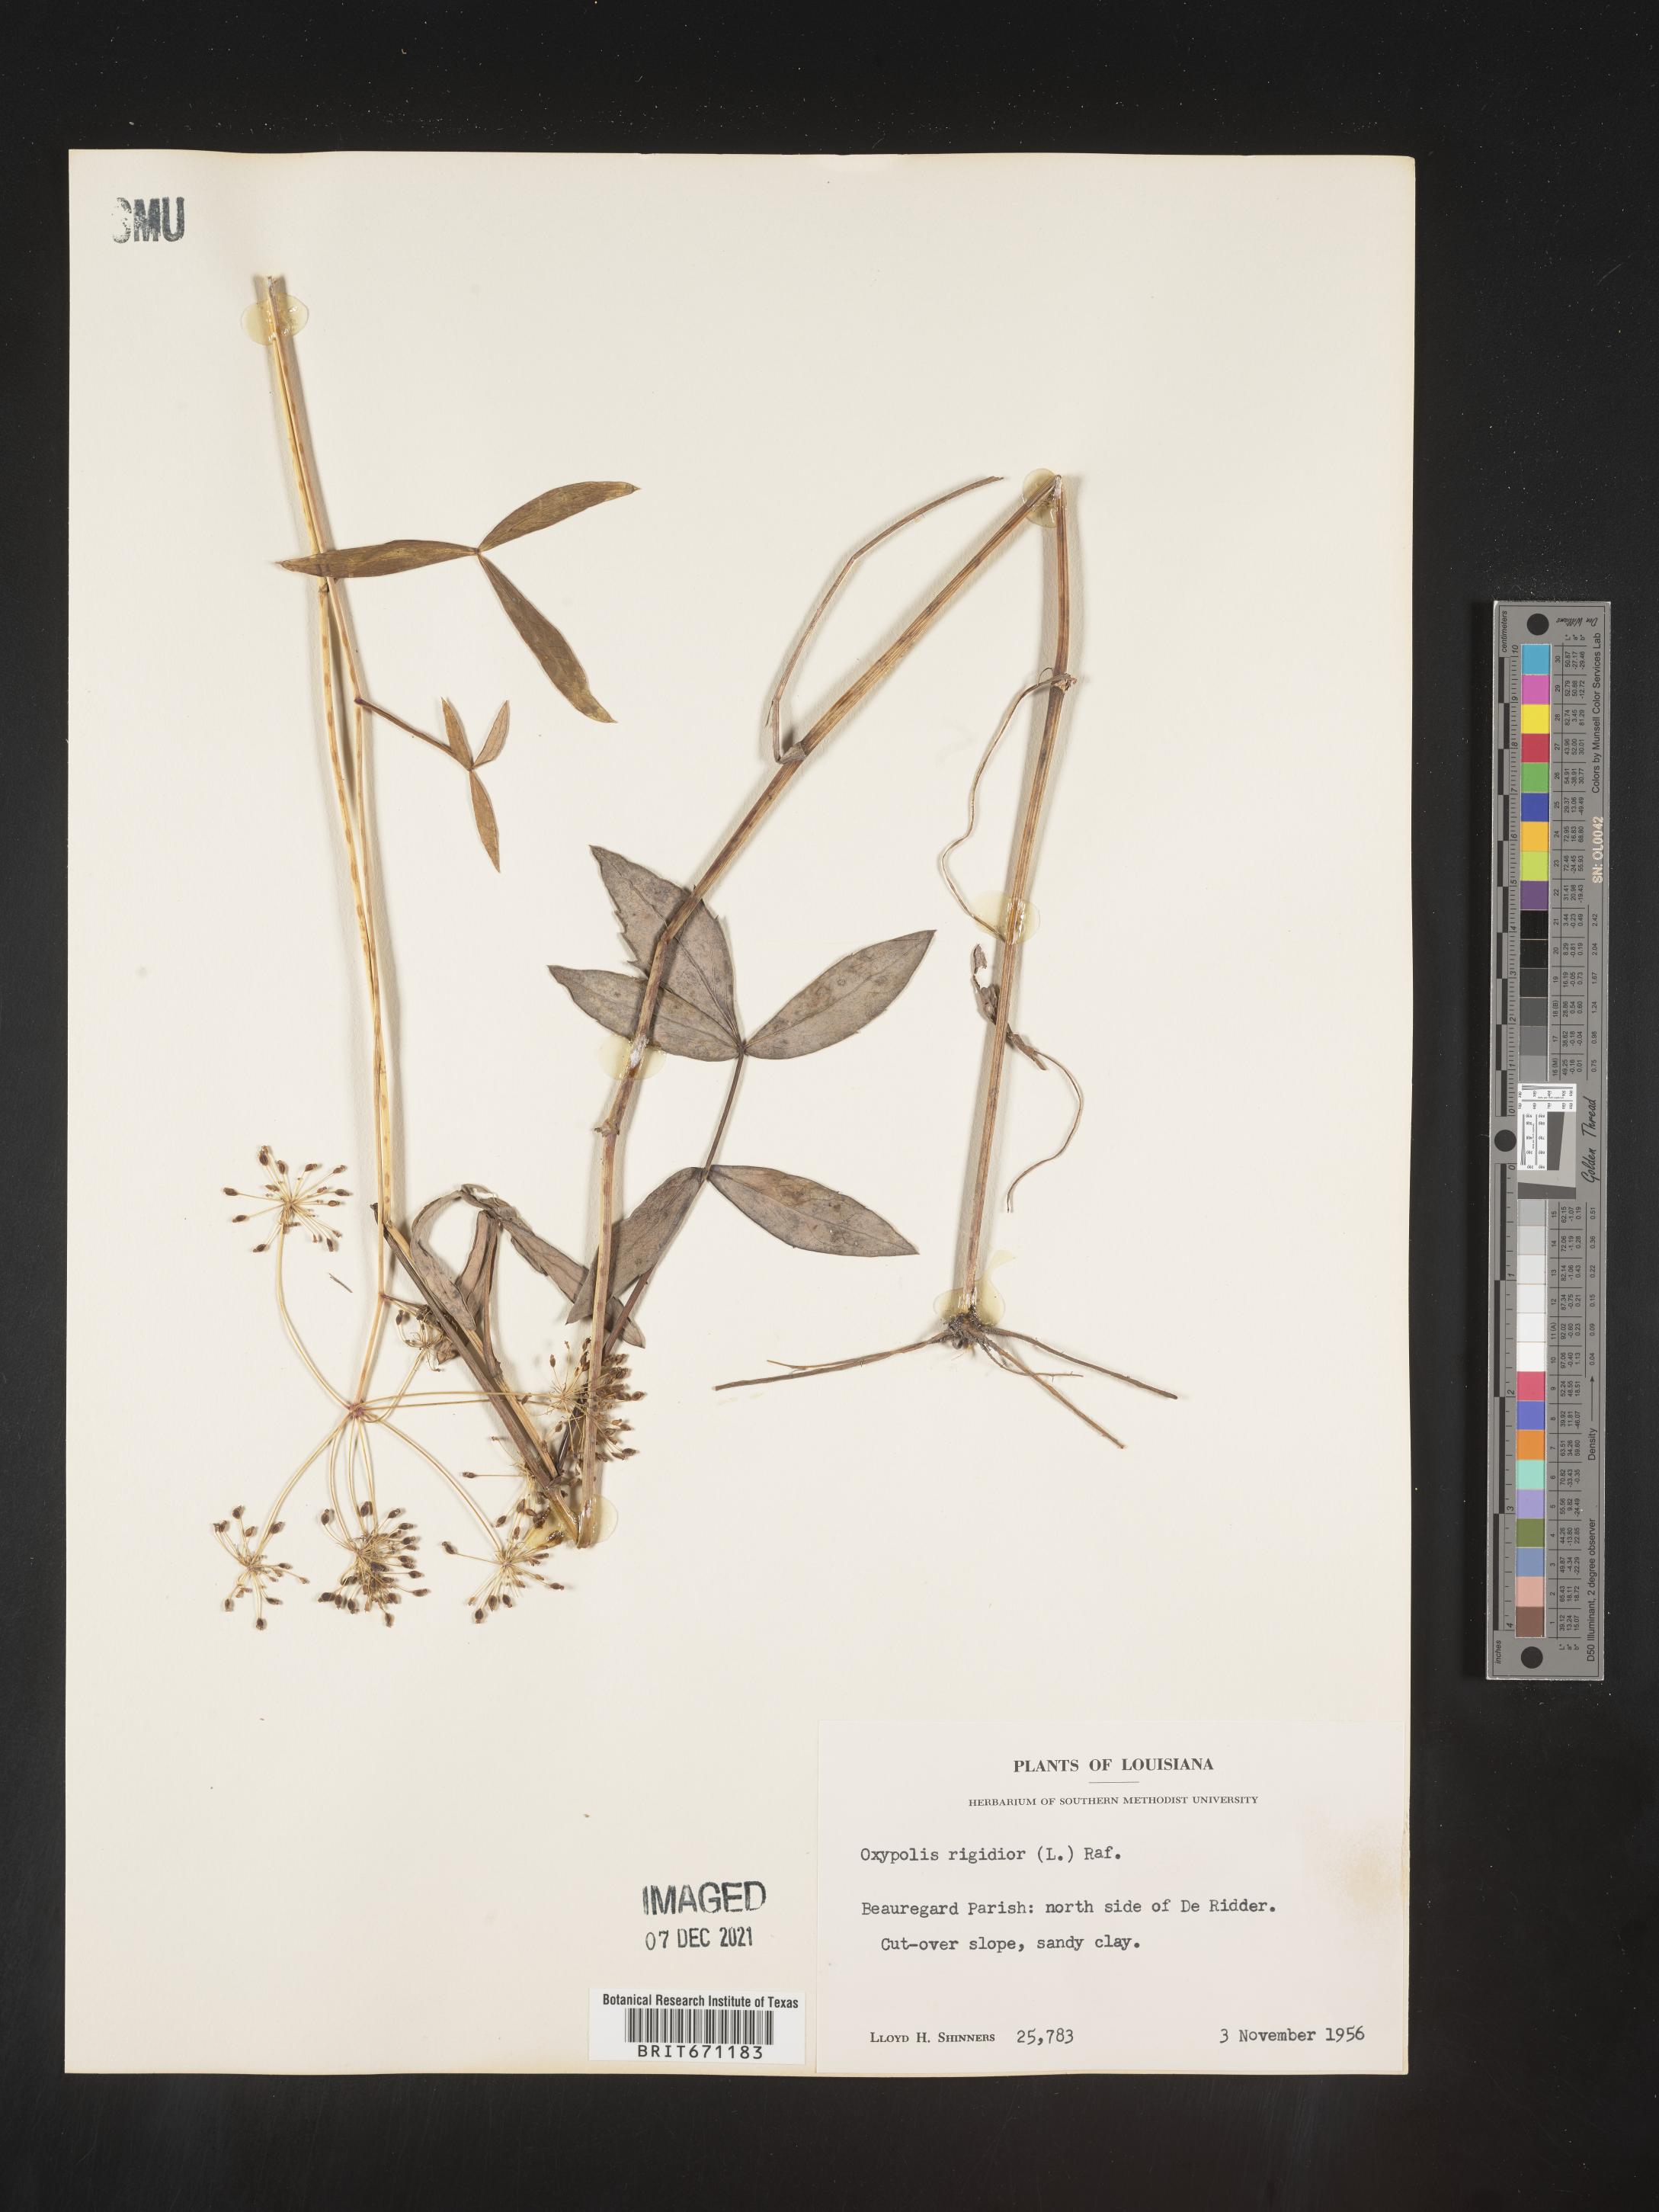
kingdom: Plantae
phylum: Tracheophyta
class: Magnoliopsida
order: Apiales
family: Apiaceae
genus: Oxypolis
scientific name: Oxypolis rigidior
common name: Cowbane
